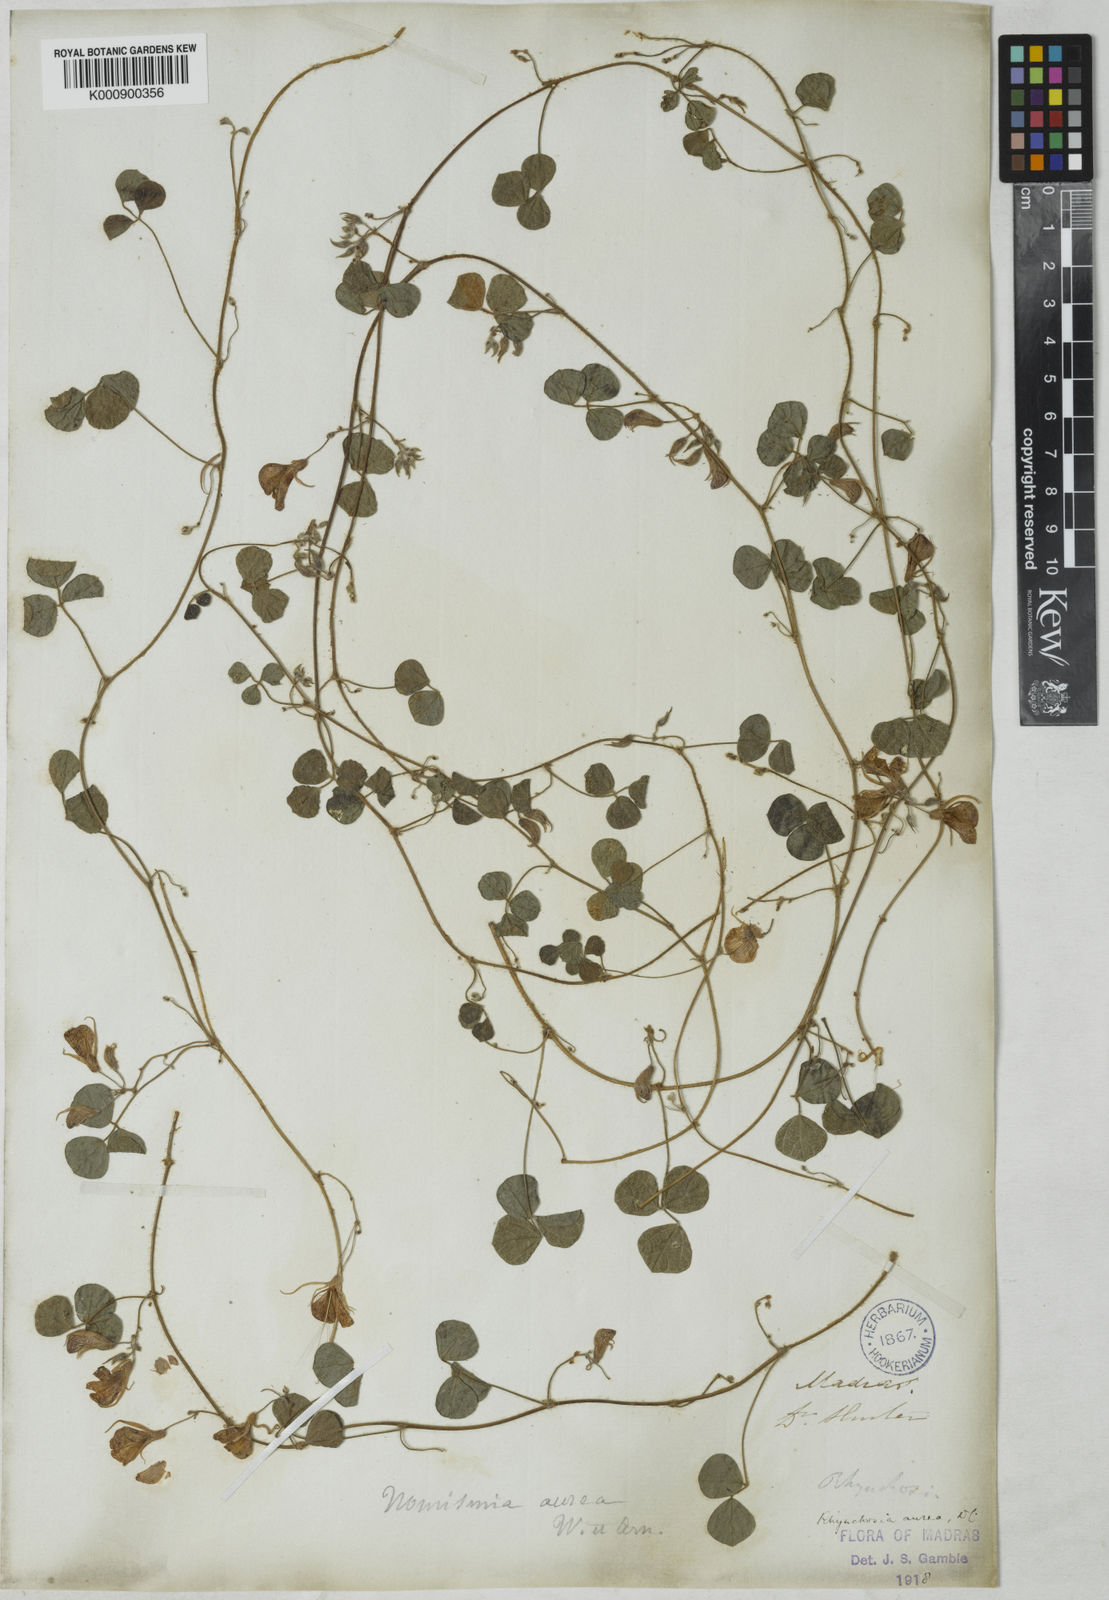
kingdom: Plantae
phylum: Tracheophyta
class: Magnoliopsida
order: Fabales
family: Fabaceae
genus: Rhynchosia
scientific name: Rhynchosia aurea
